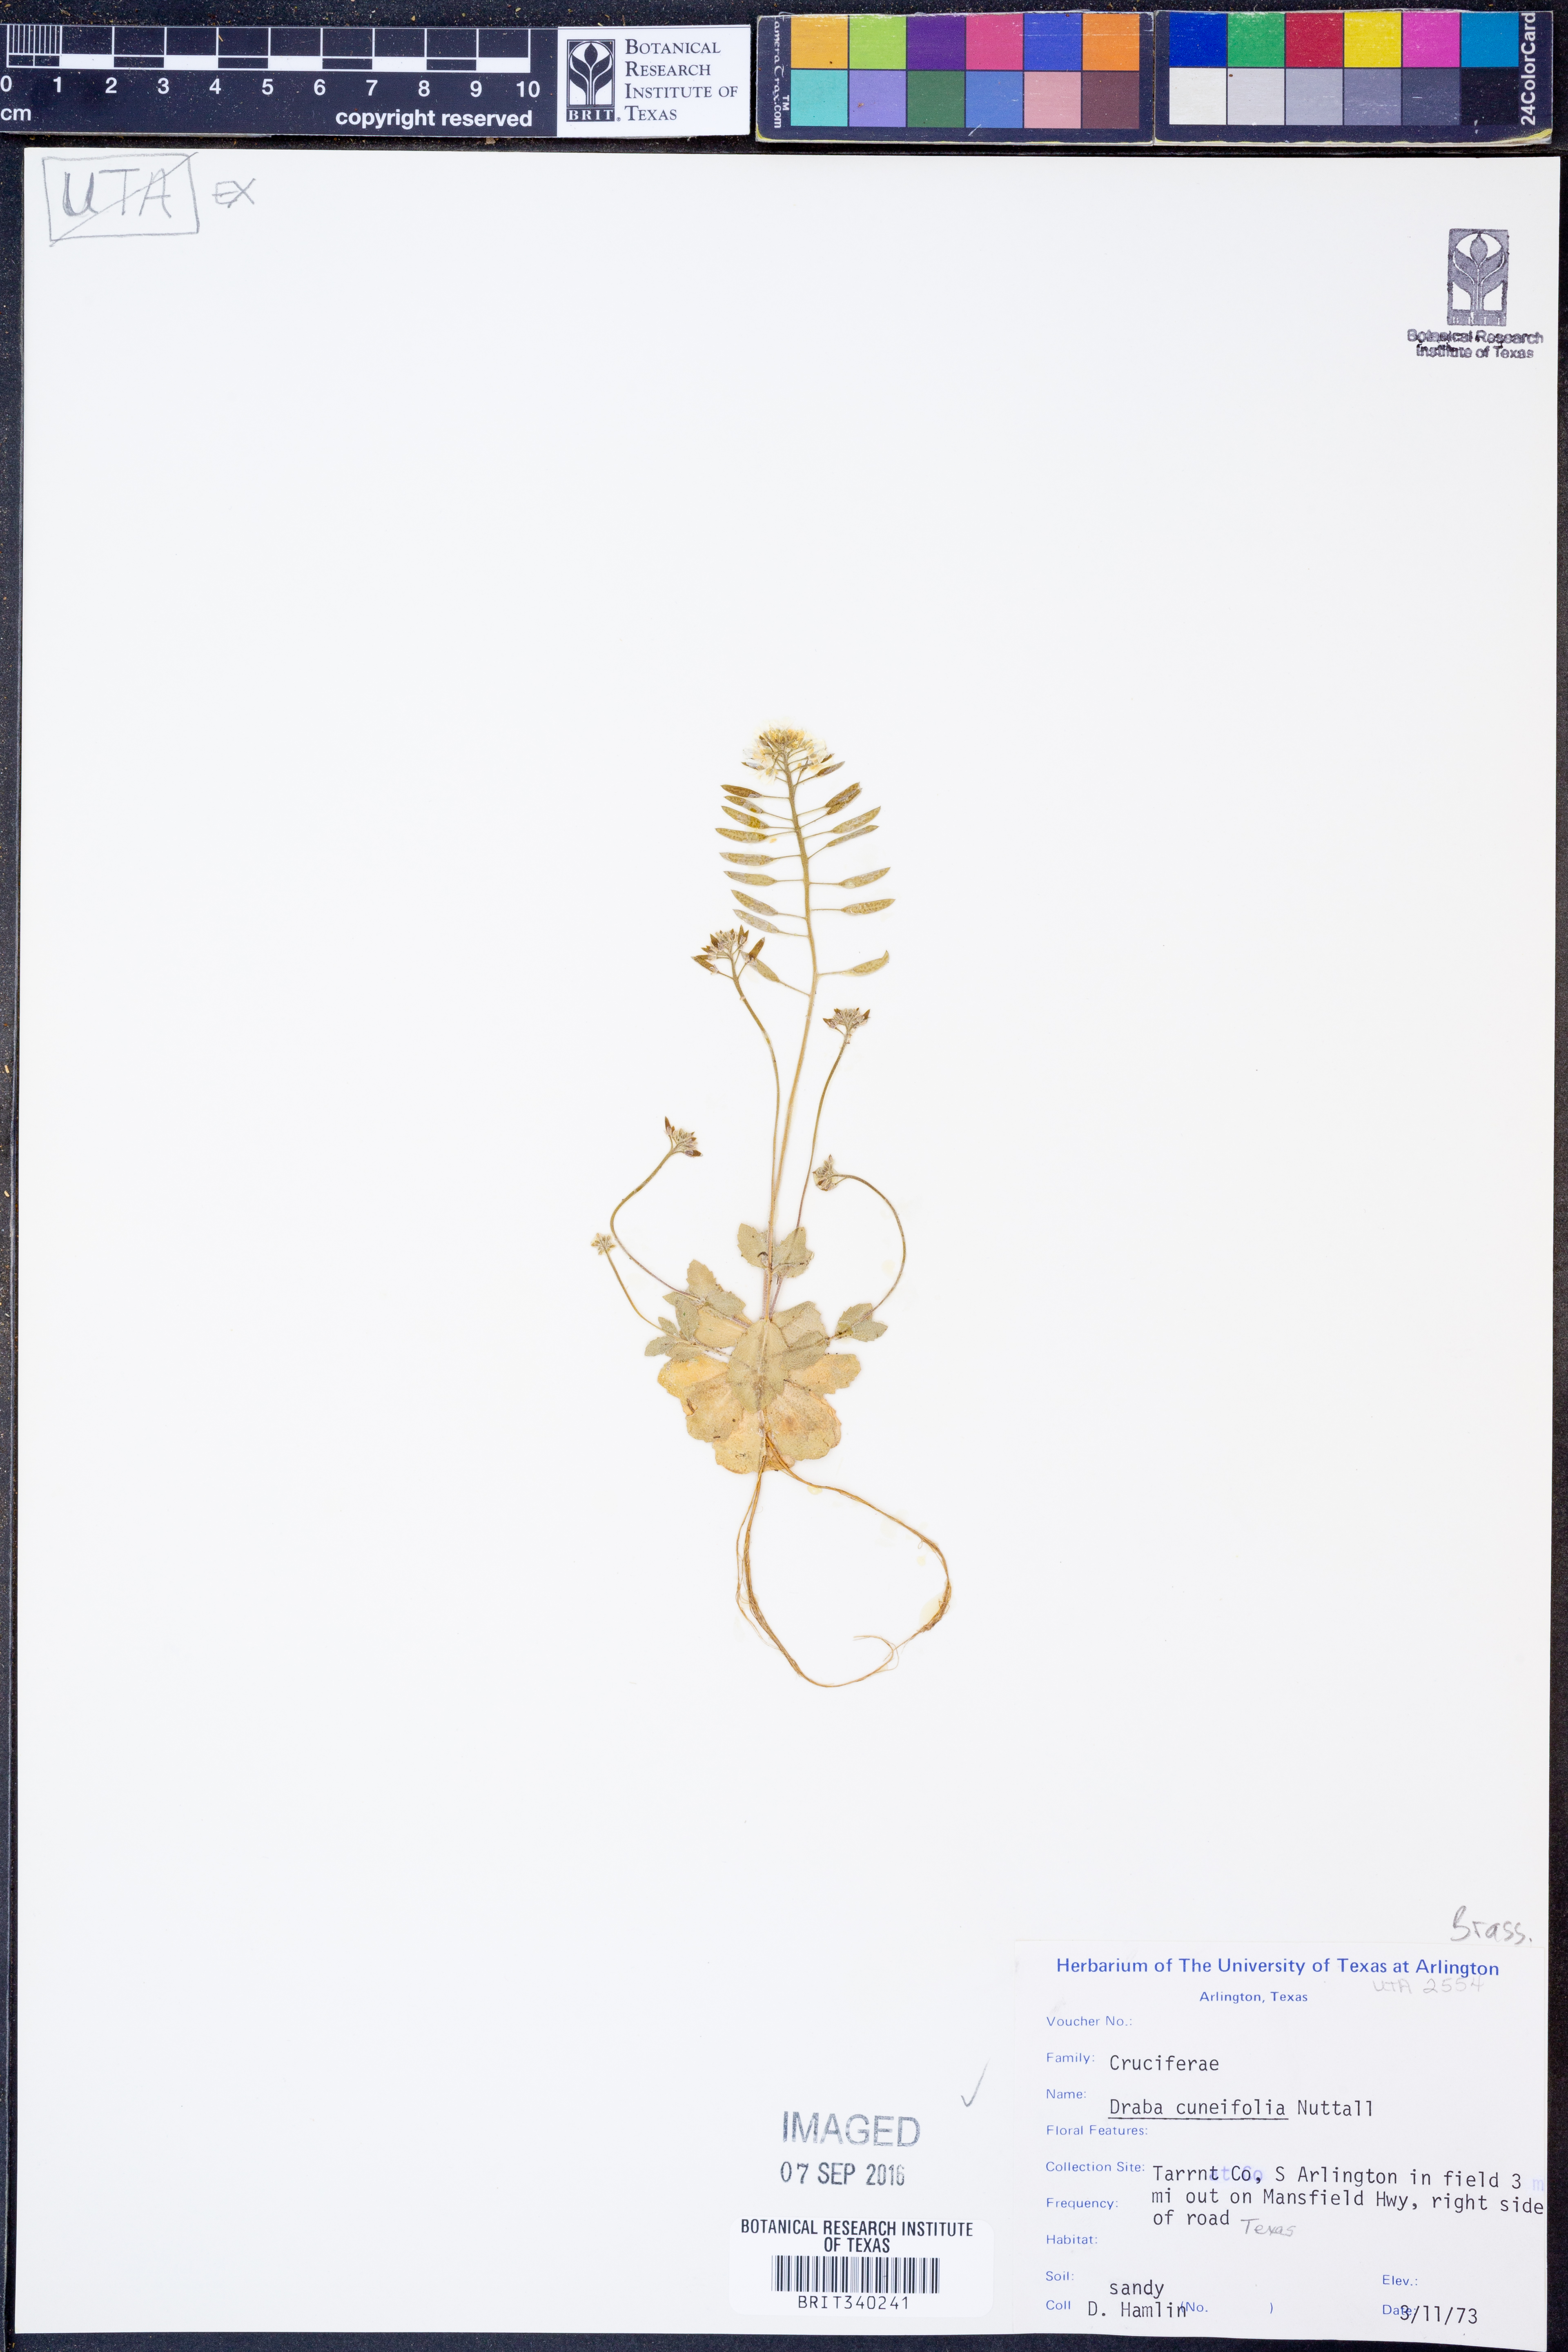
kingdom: Plantae
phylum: Tracheophyta
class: Magnoliopsida
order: Brassicales
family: Brassicaceae
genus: Tomostima
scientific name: Tomostima cuneifolia
